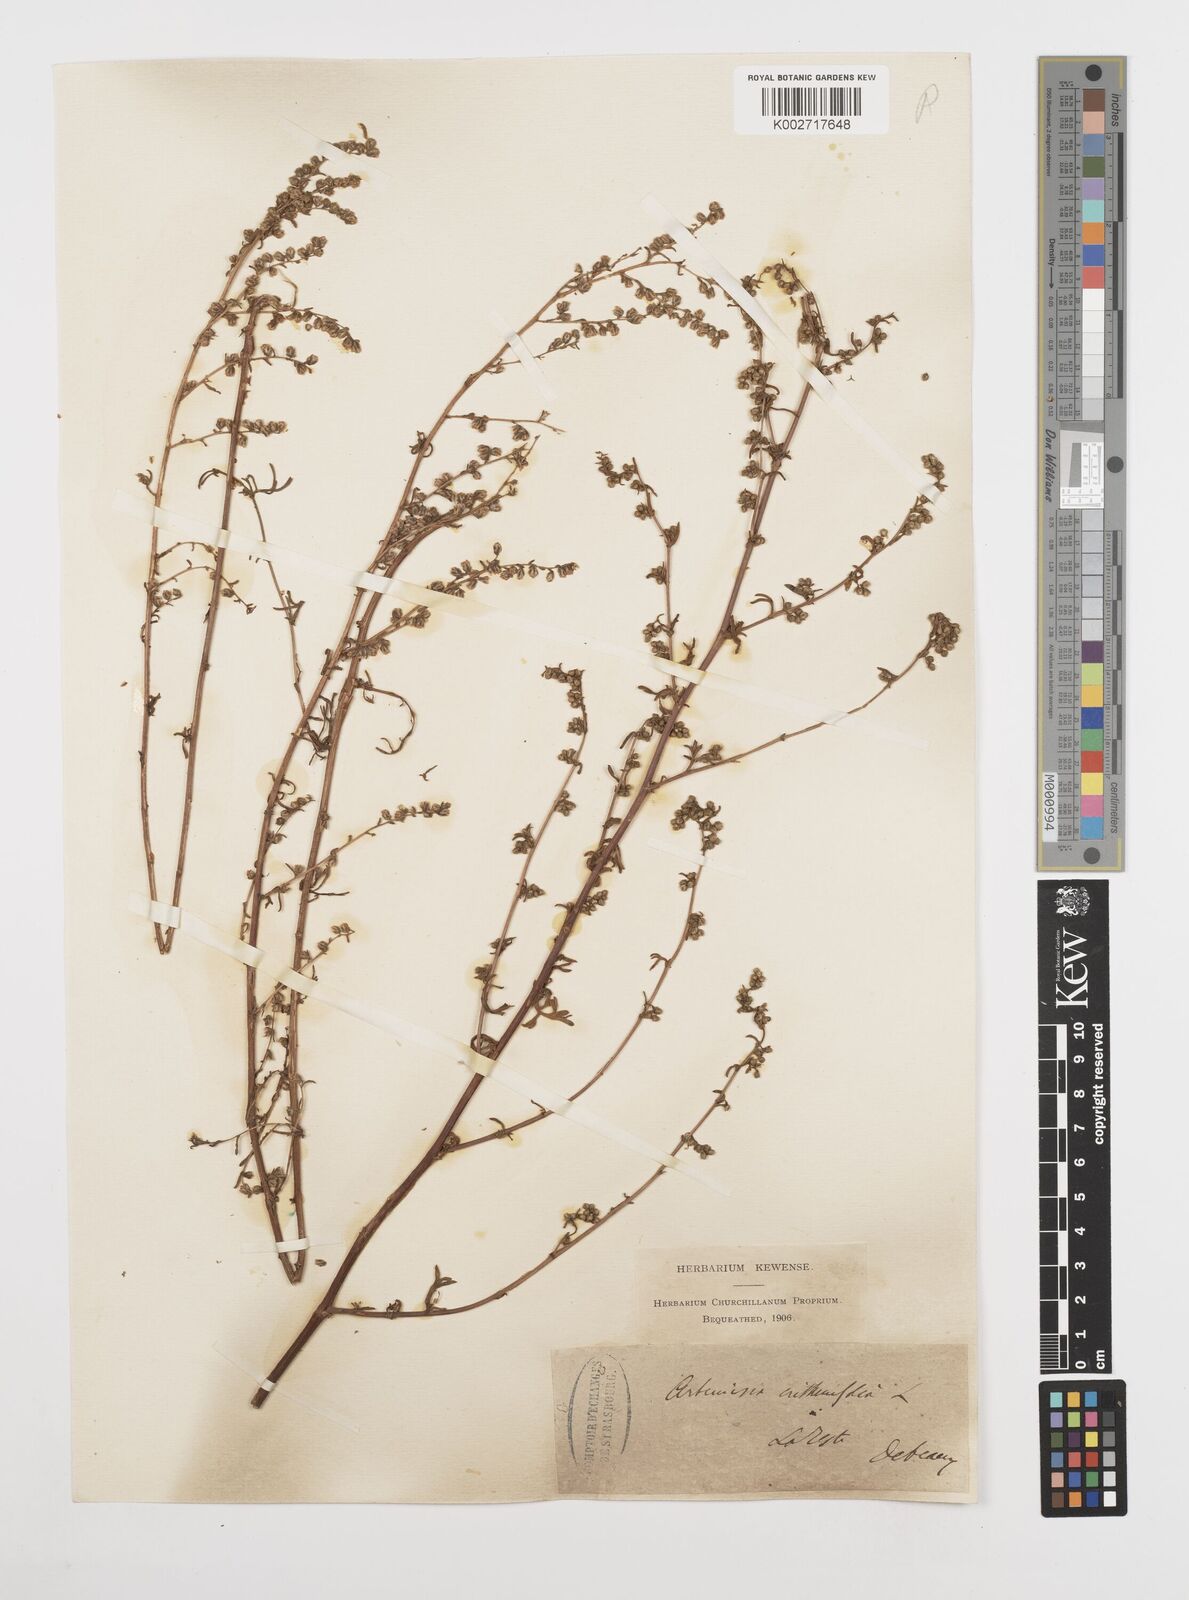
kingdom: Plantae
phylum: Tracheophyta
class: Magnoliopsida
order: Asterales
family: Asteraceae
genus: Artemisia
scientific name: Artemisia campestris
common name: Field wormwood
